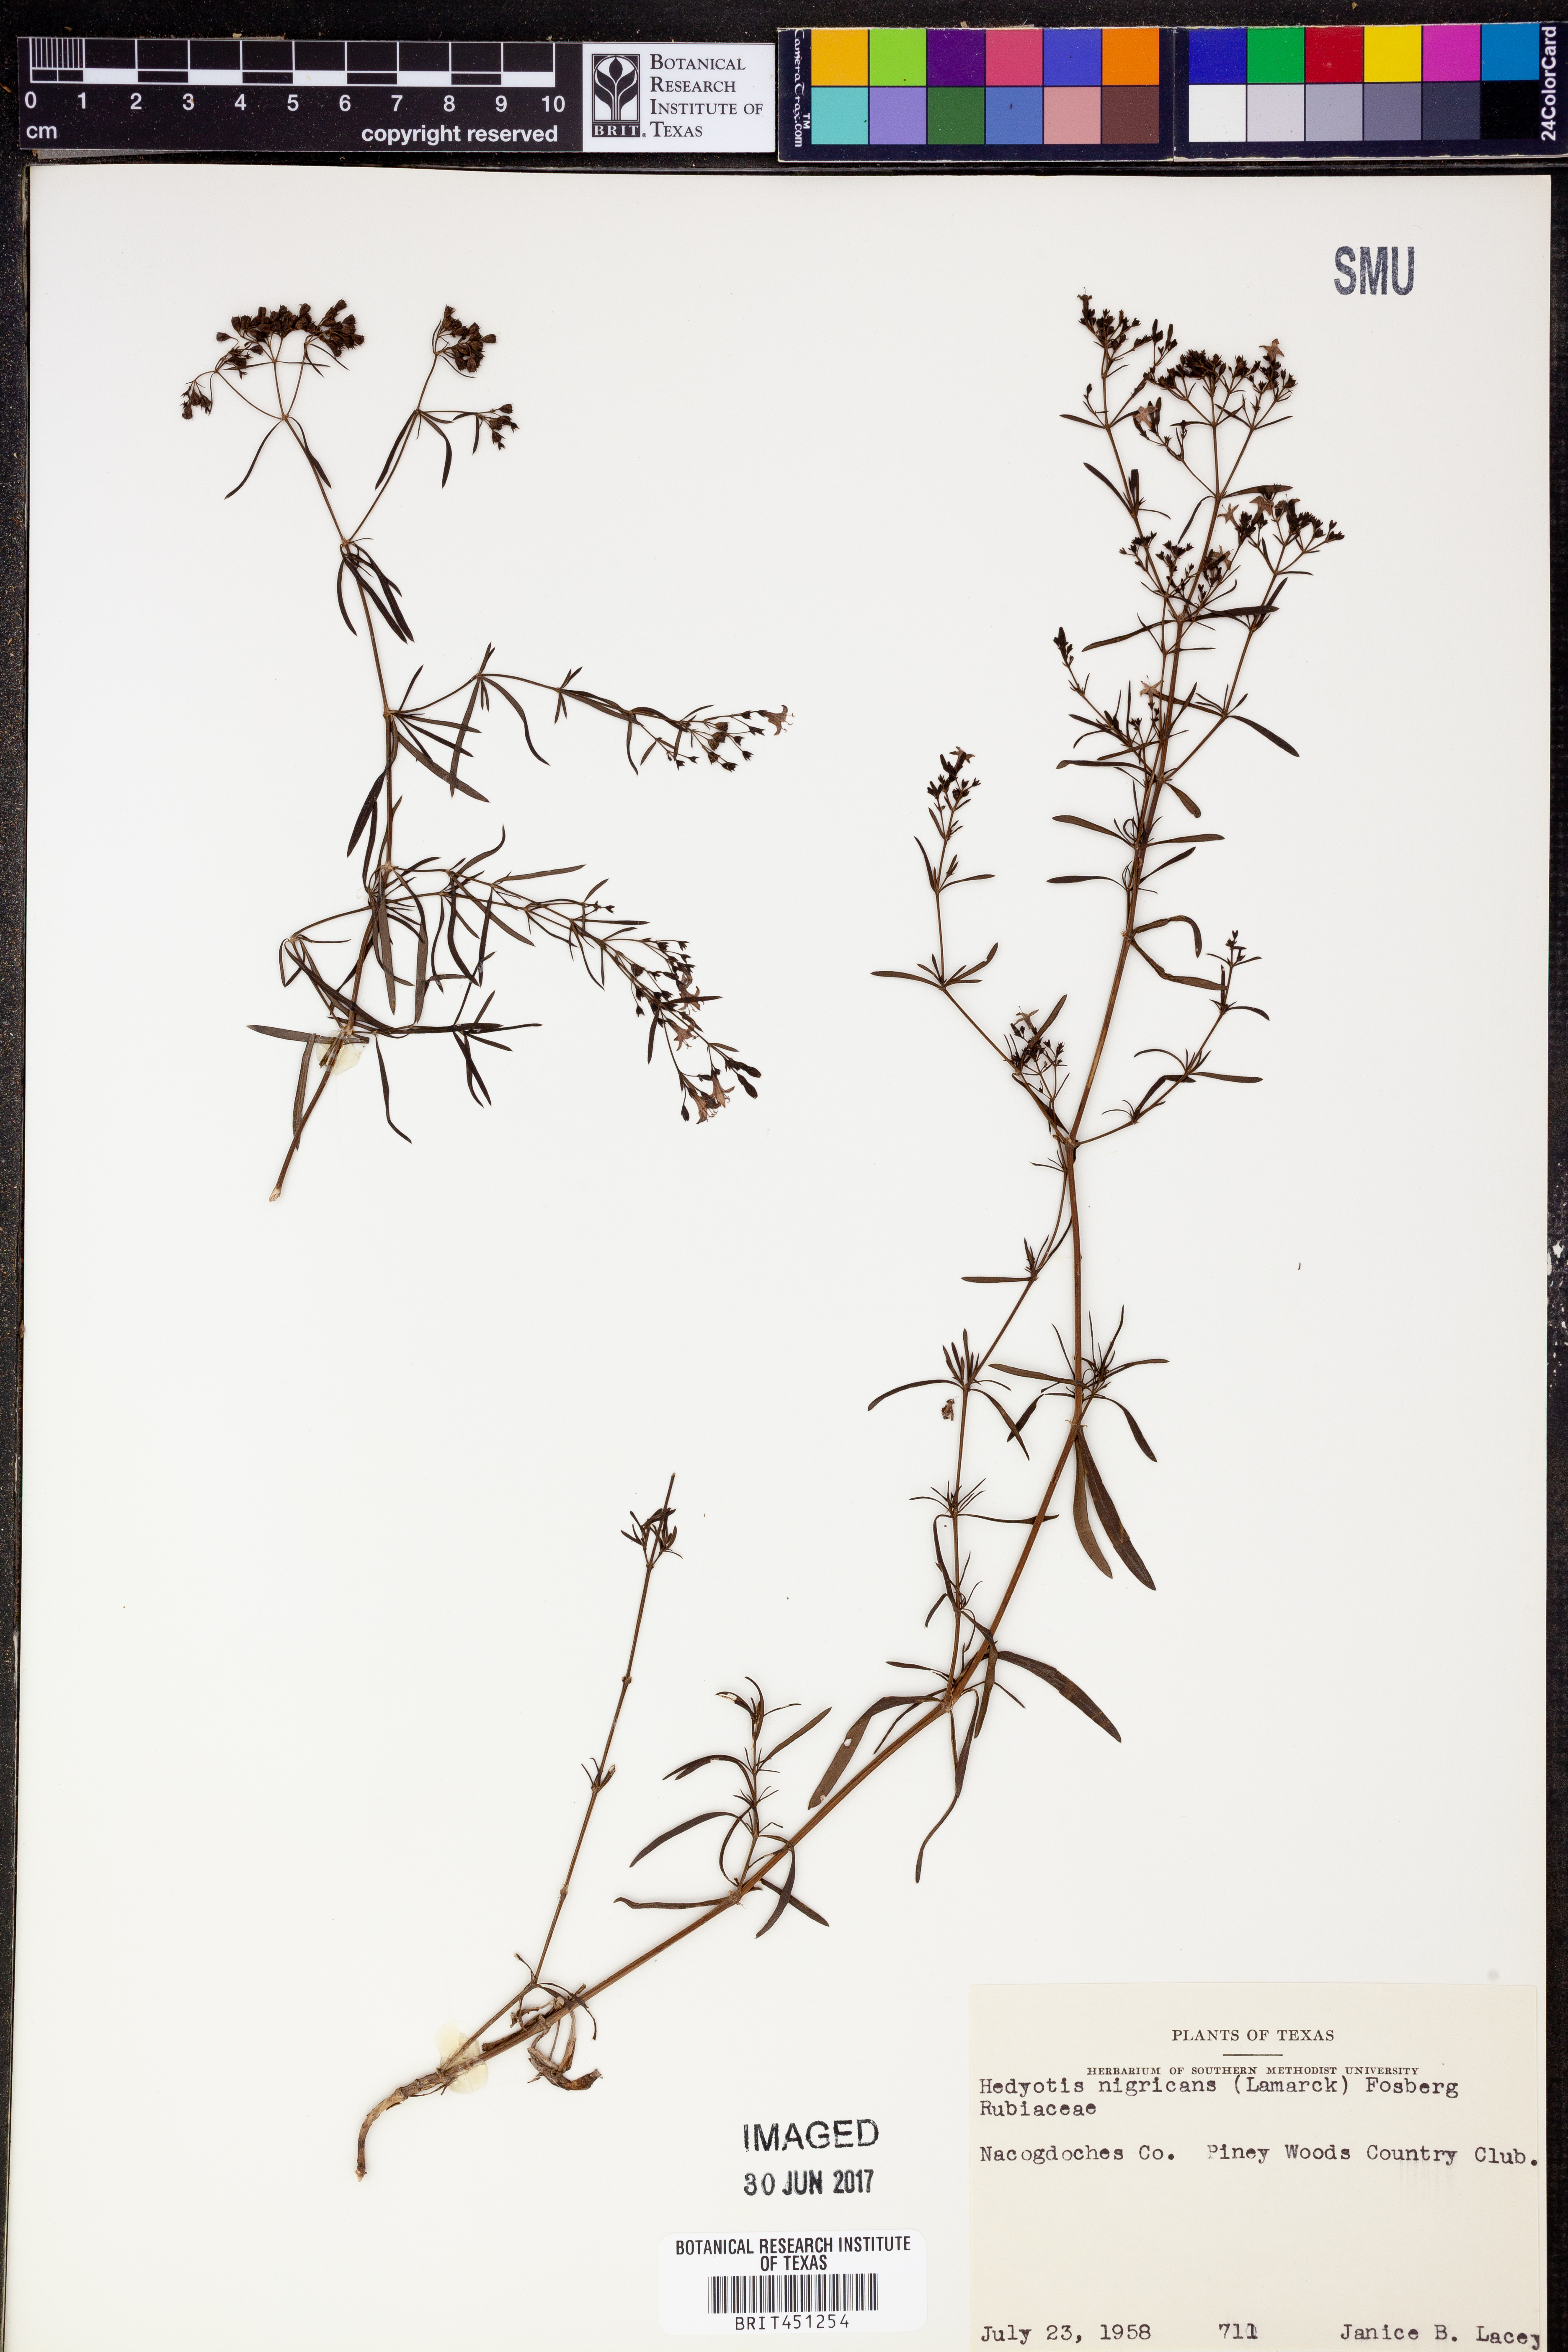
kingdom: Plantae
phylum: Tracheophyta
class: Magnoliopsida
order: Gentianales
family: Rubiaceae
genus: Stenaria
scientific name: Stenaria nigricans
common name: Diamondflowers
